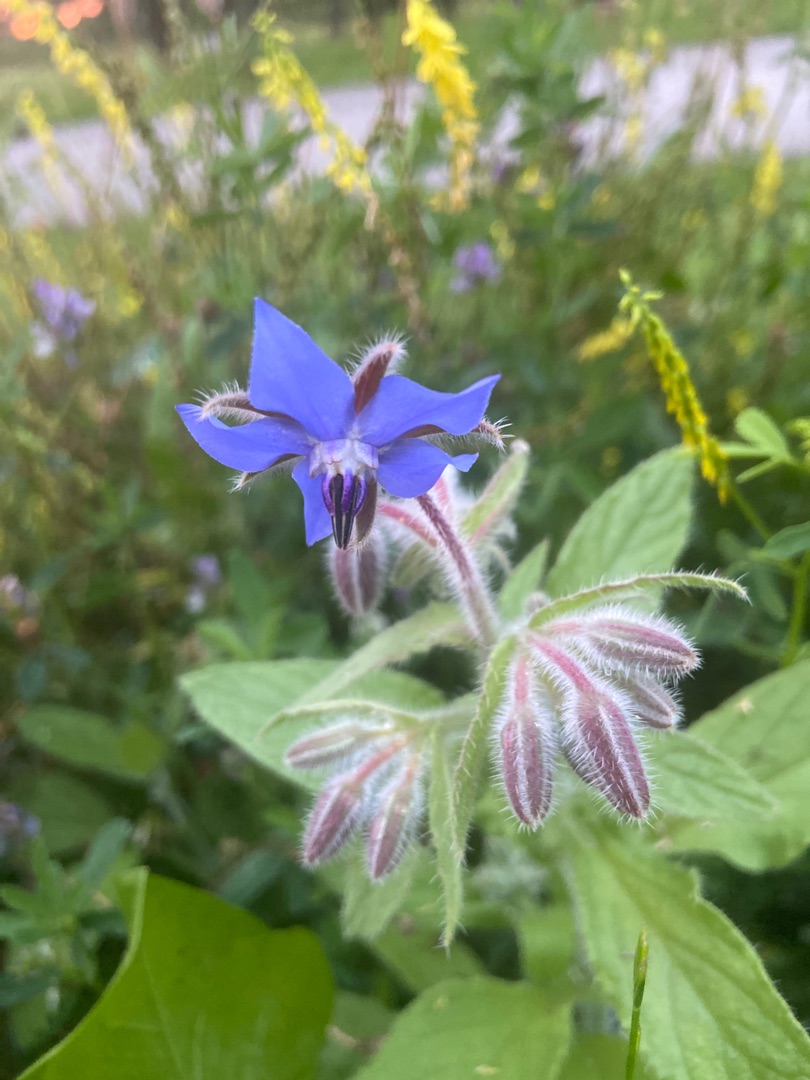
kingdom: Plantae
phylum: Tracheophyta
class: Magnoliopsida
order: Boraginales
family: Boraginaceae
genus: Borago
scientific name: Borago officinalis
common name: Hjulkrone
